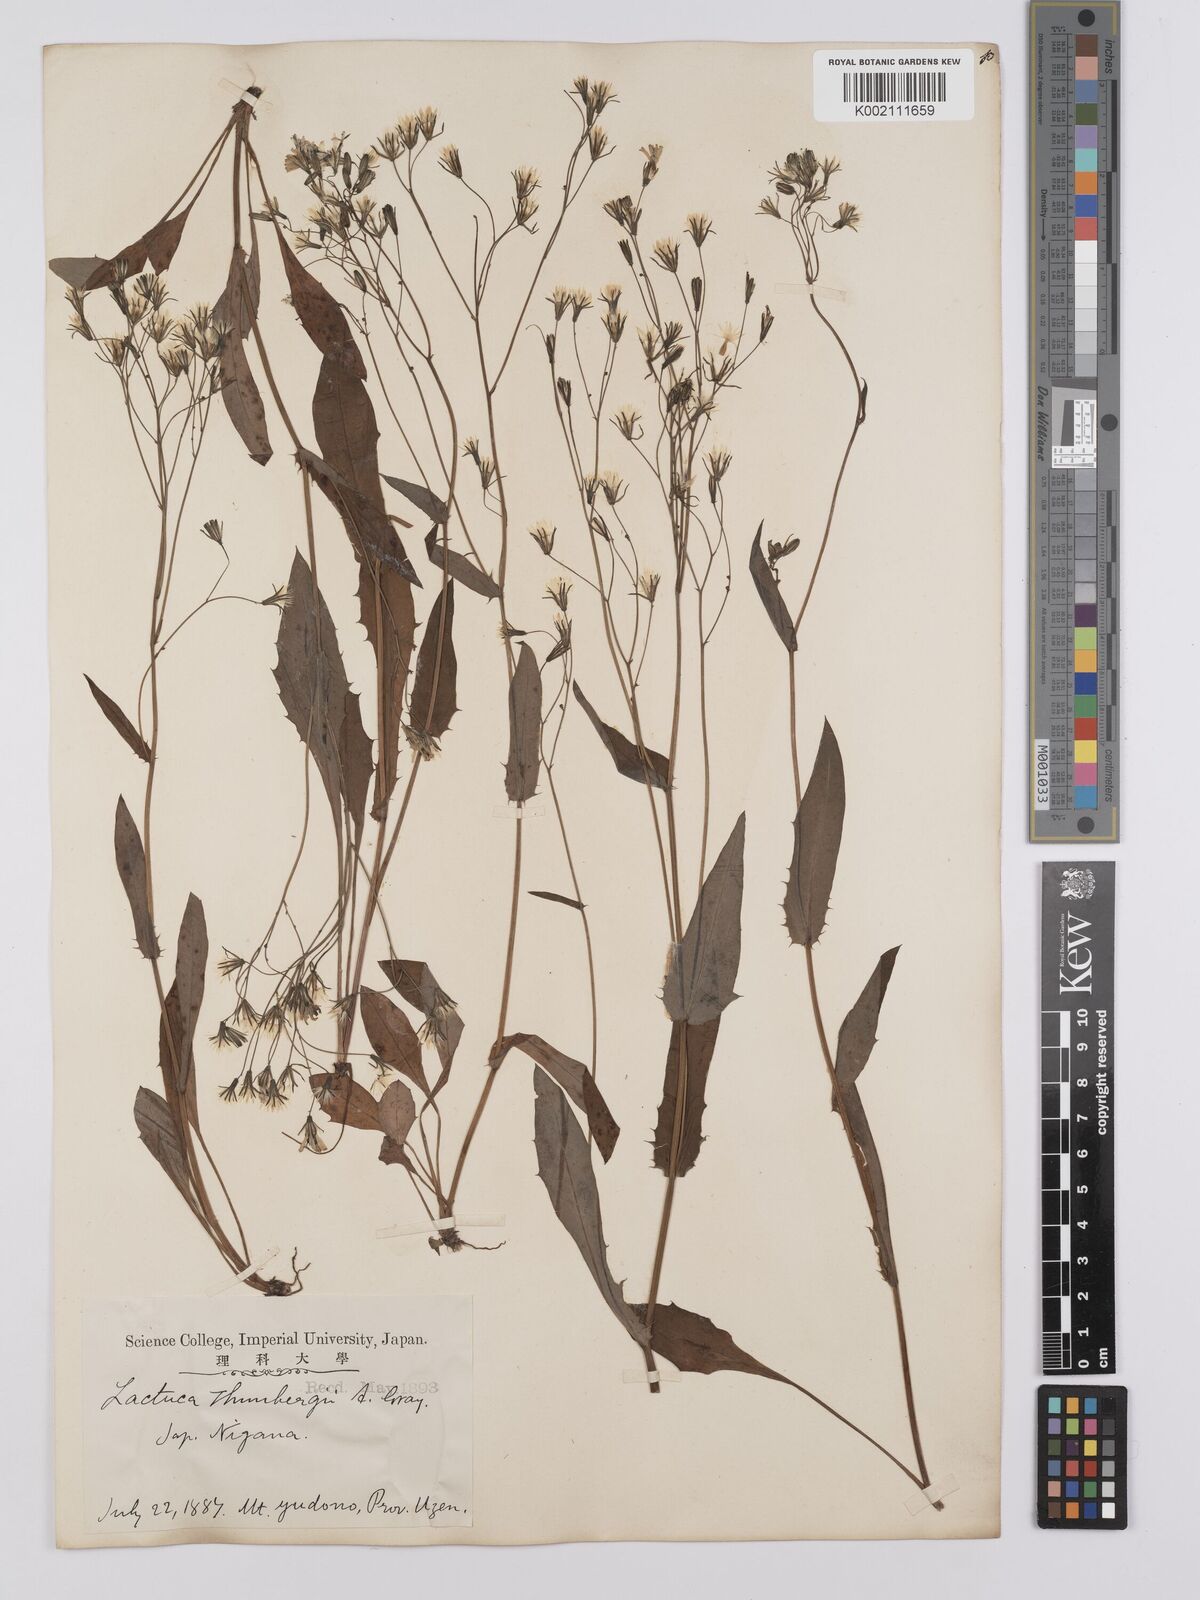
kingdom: Plantae
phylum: Tracheophyta
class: Magnoliopsida
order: Asterales
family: Asteraceae
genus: Ixeridium
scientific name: Ixeridium dentatum
